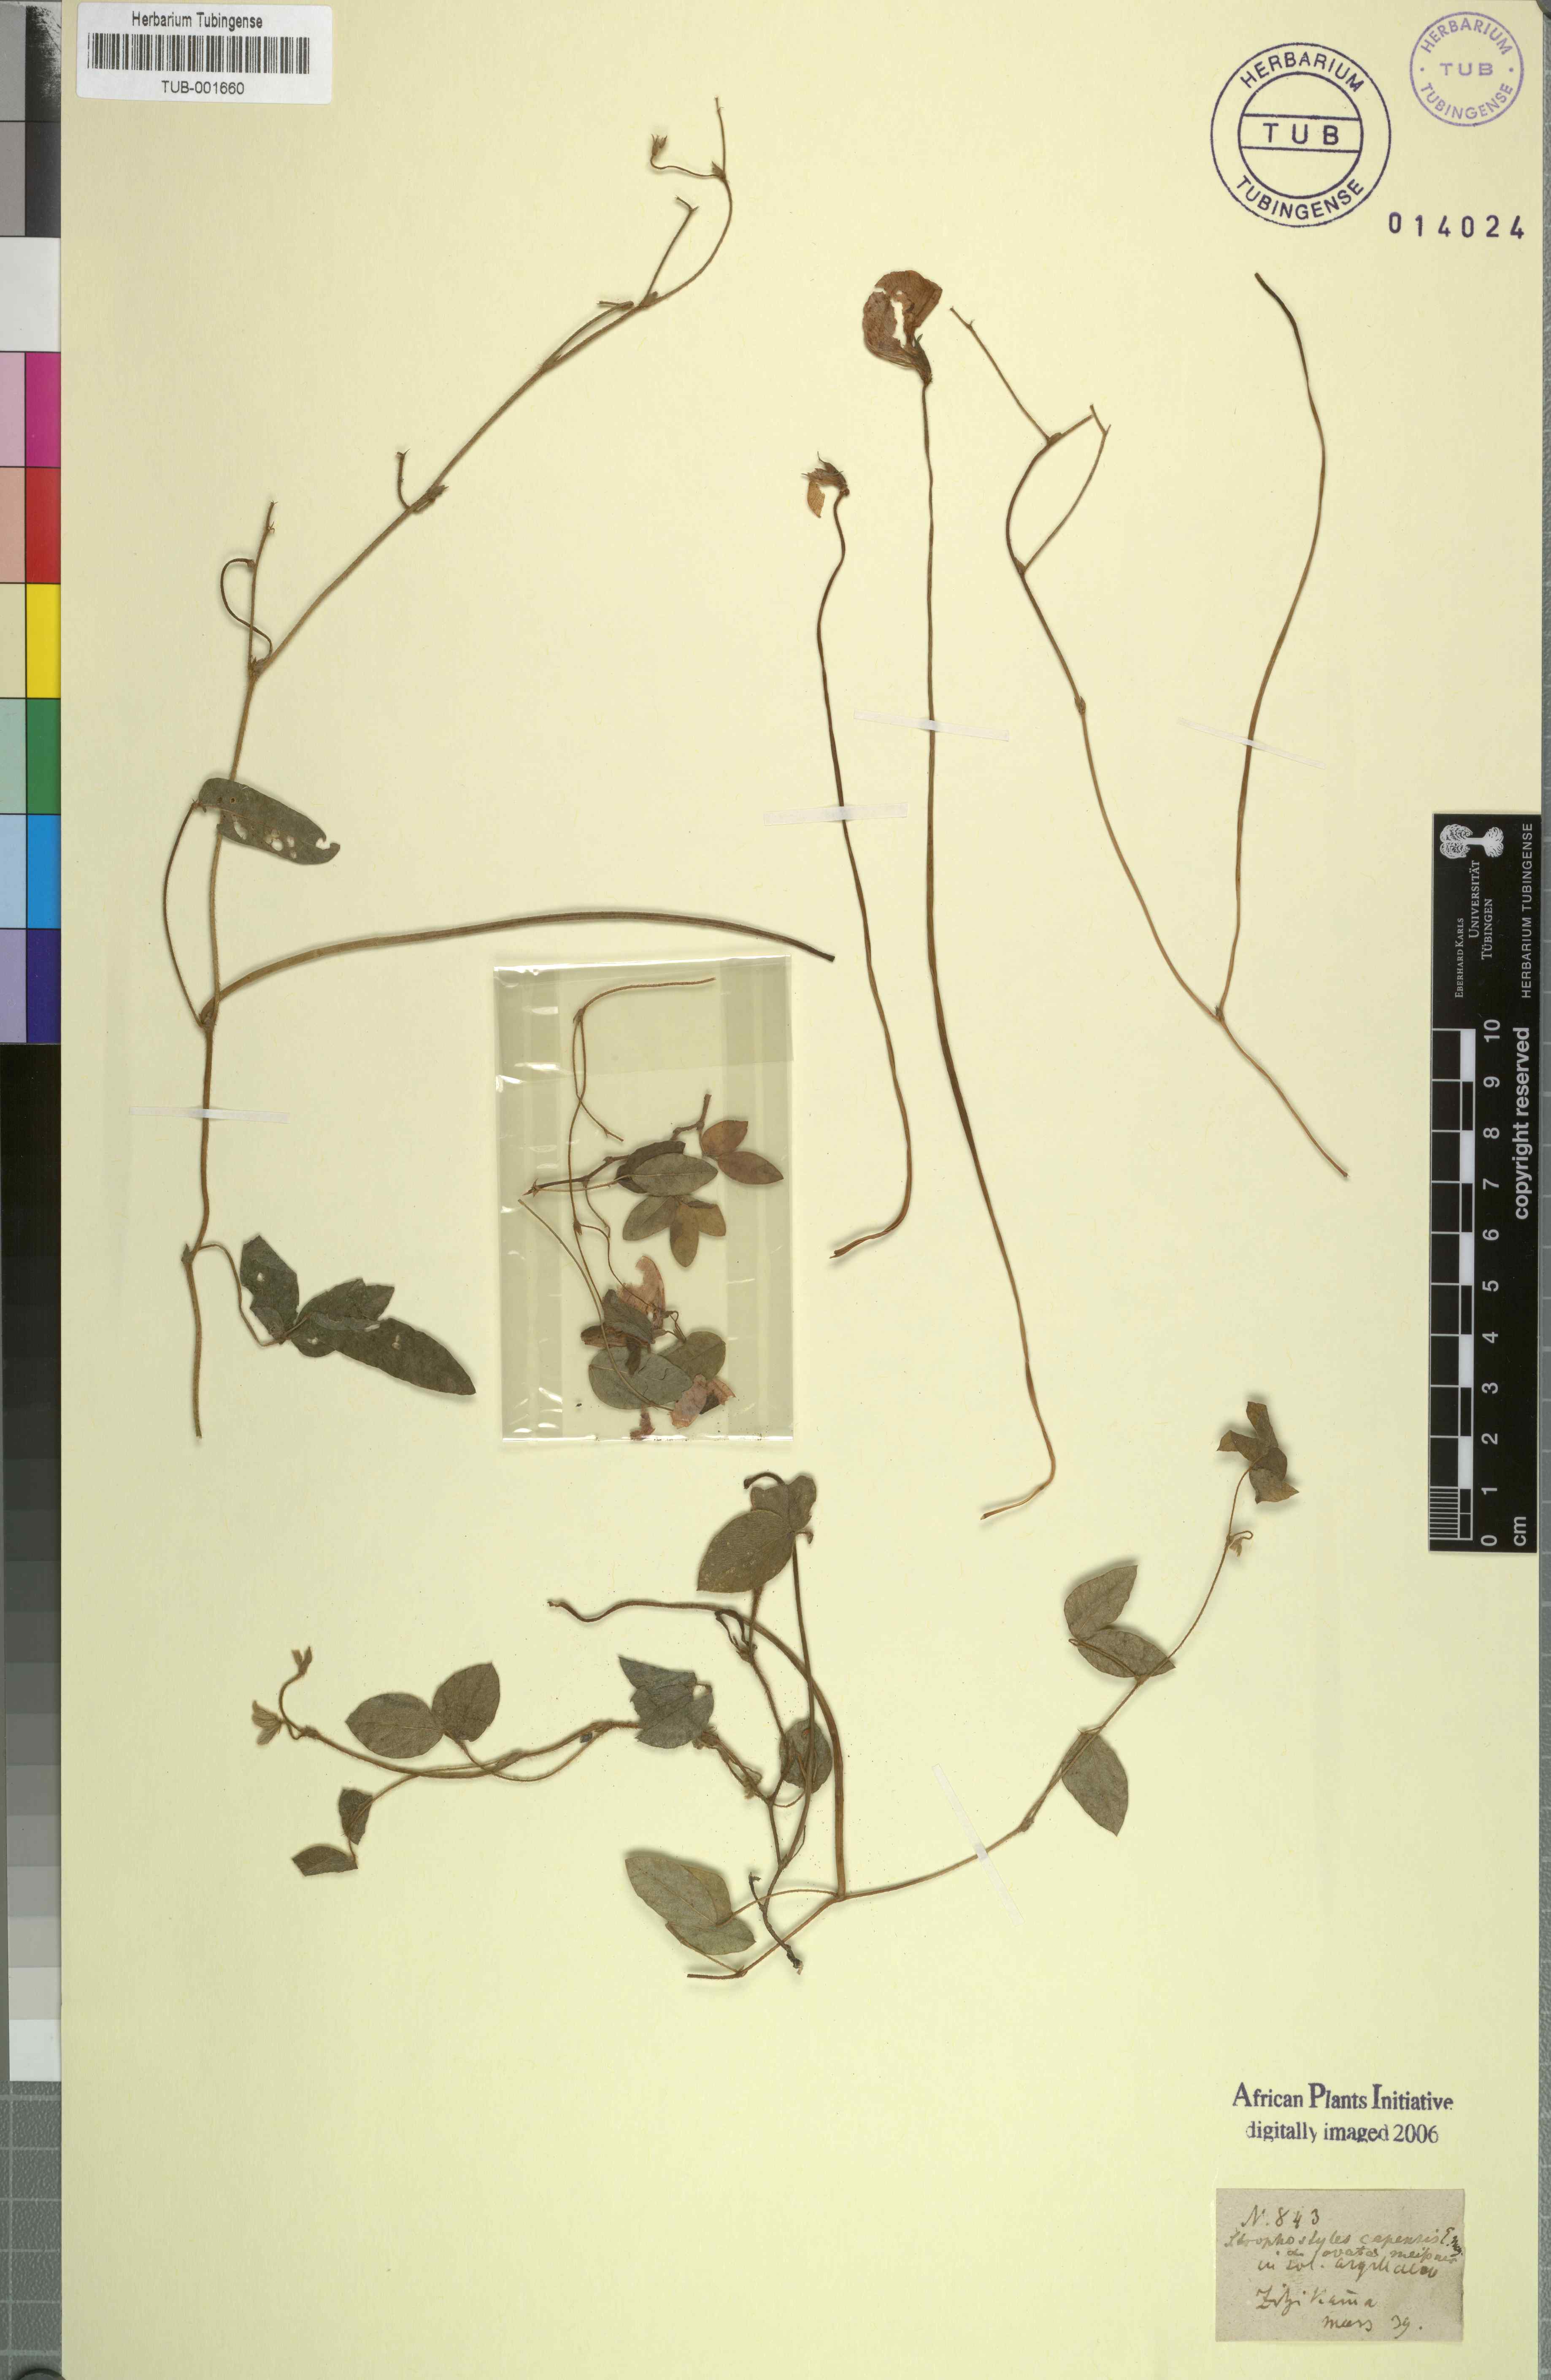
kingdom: Plantae
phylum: Tracheophyta
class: Magnoliopsida
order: Fabales
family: Fabaceae
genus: Vigna
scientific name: Vigna vexillata
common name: Zombi pea
